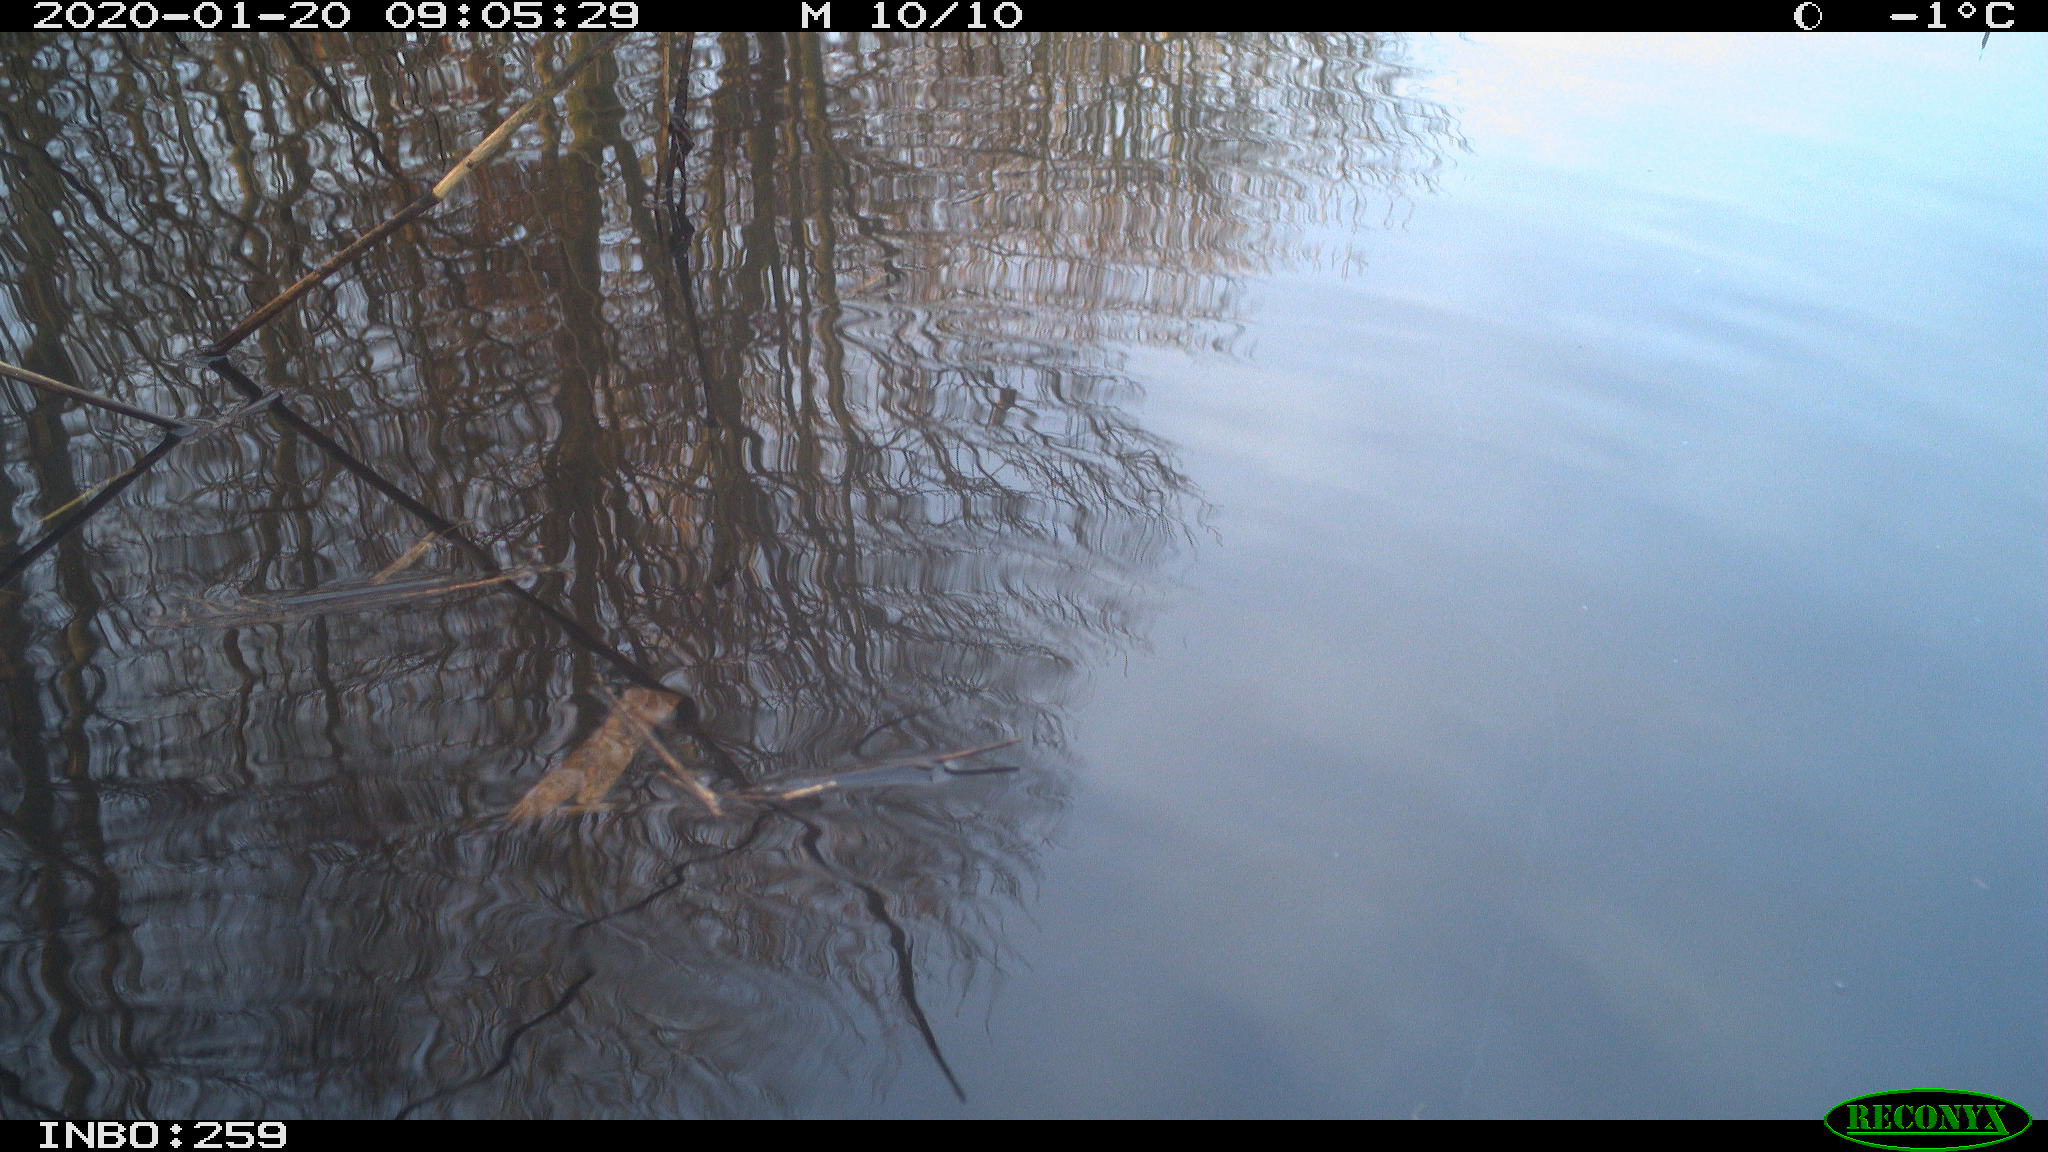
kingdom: Animalia
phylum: Chordata
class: Aves
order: Gruiformes
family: Rallidae
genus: Gallinula
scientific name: Gallinula chloropus
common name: Common moorhen
